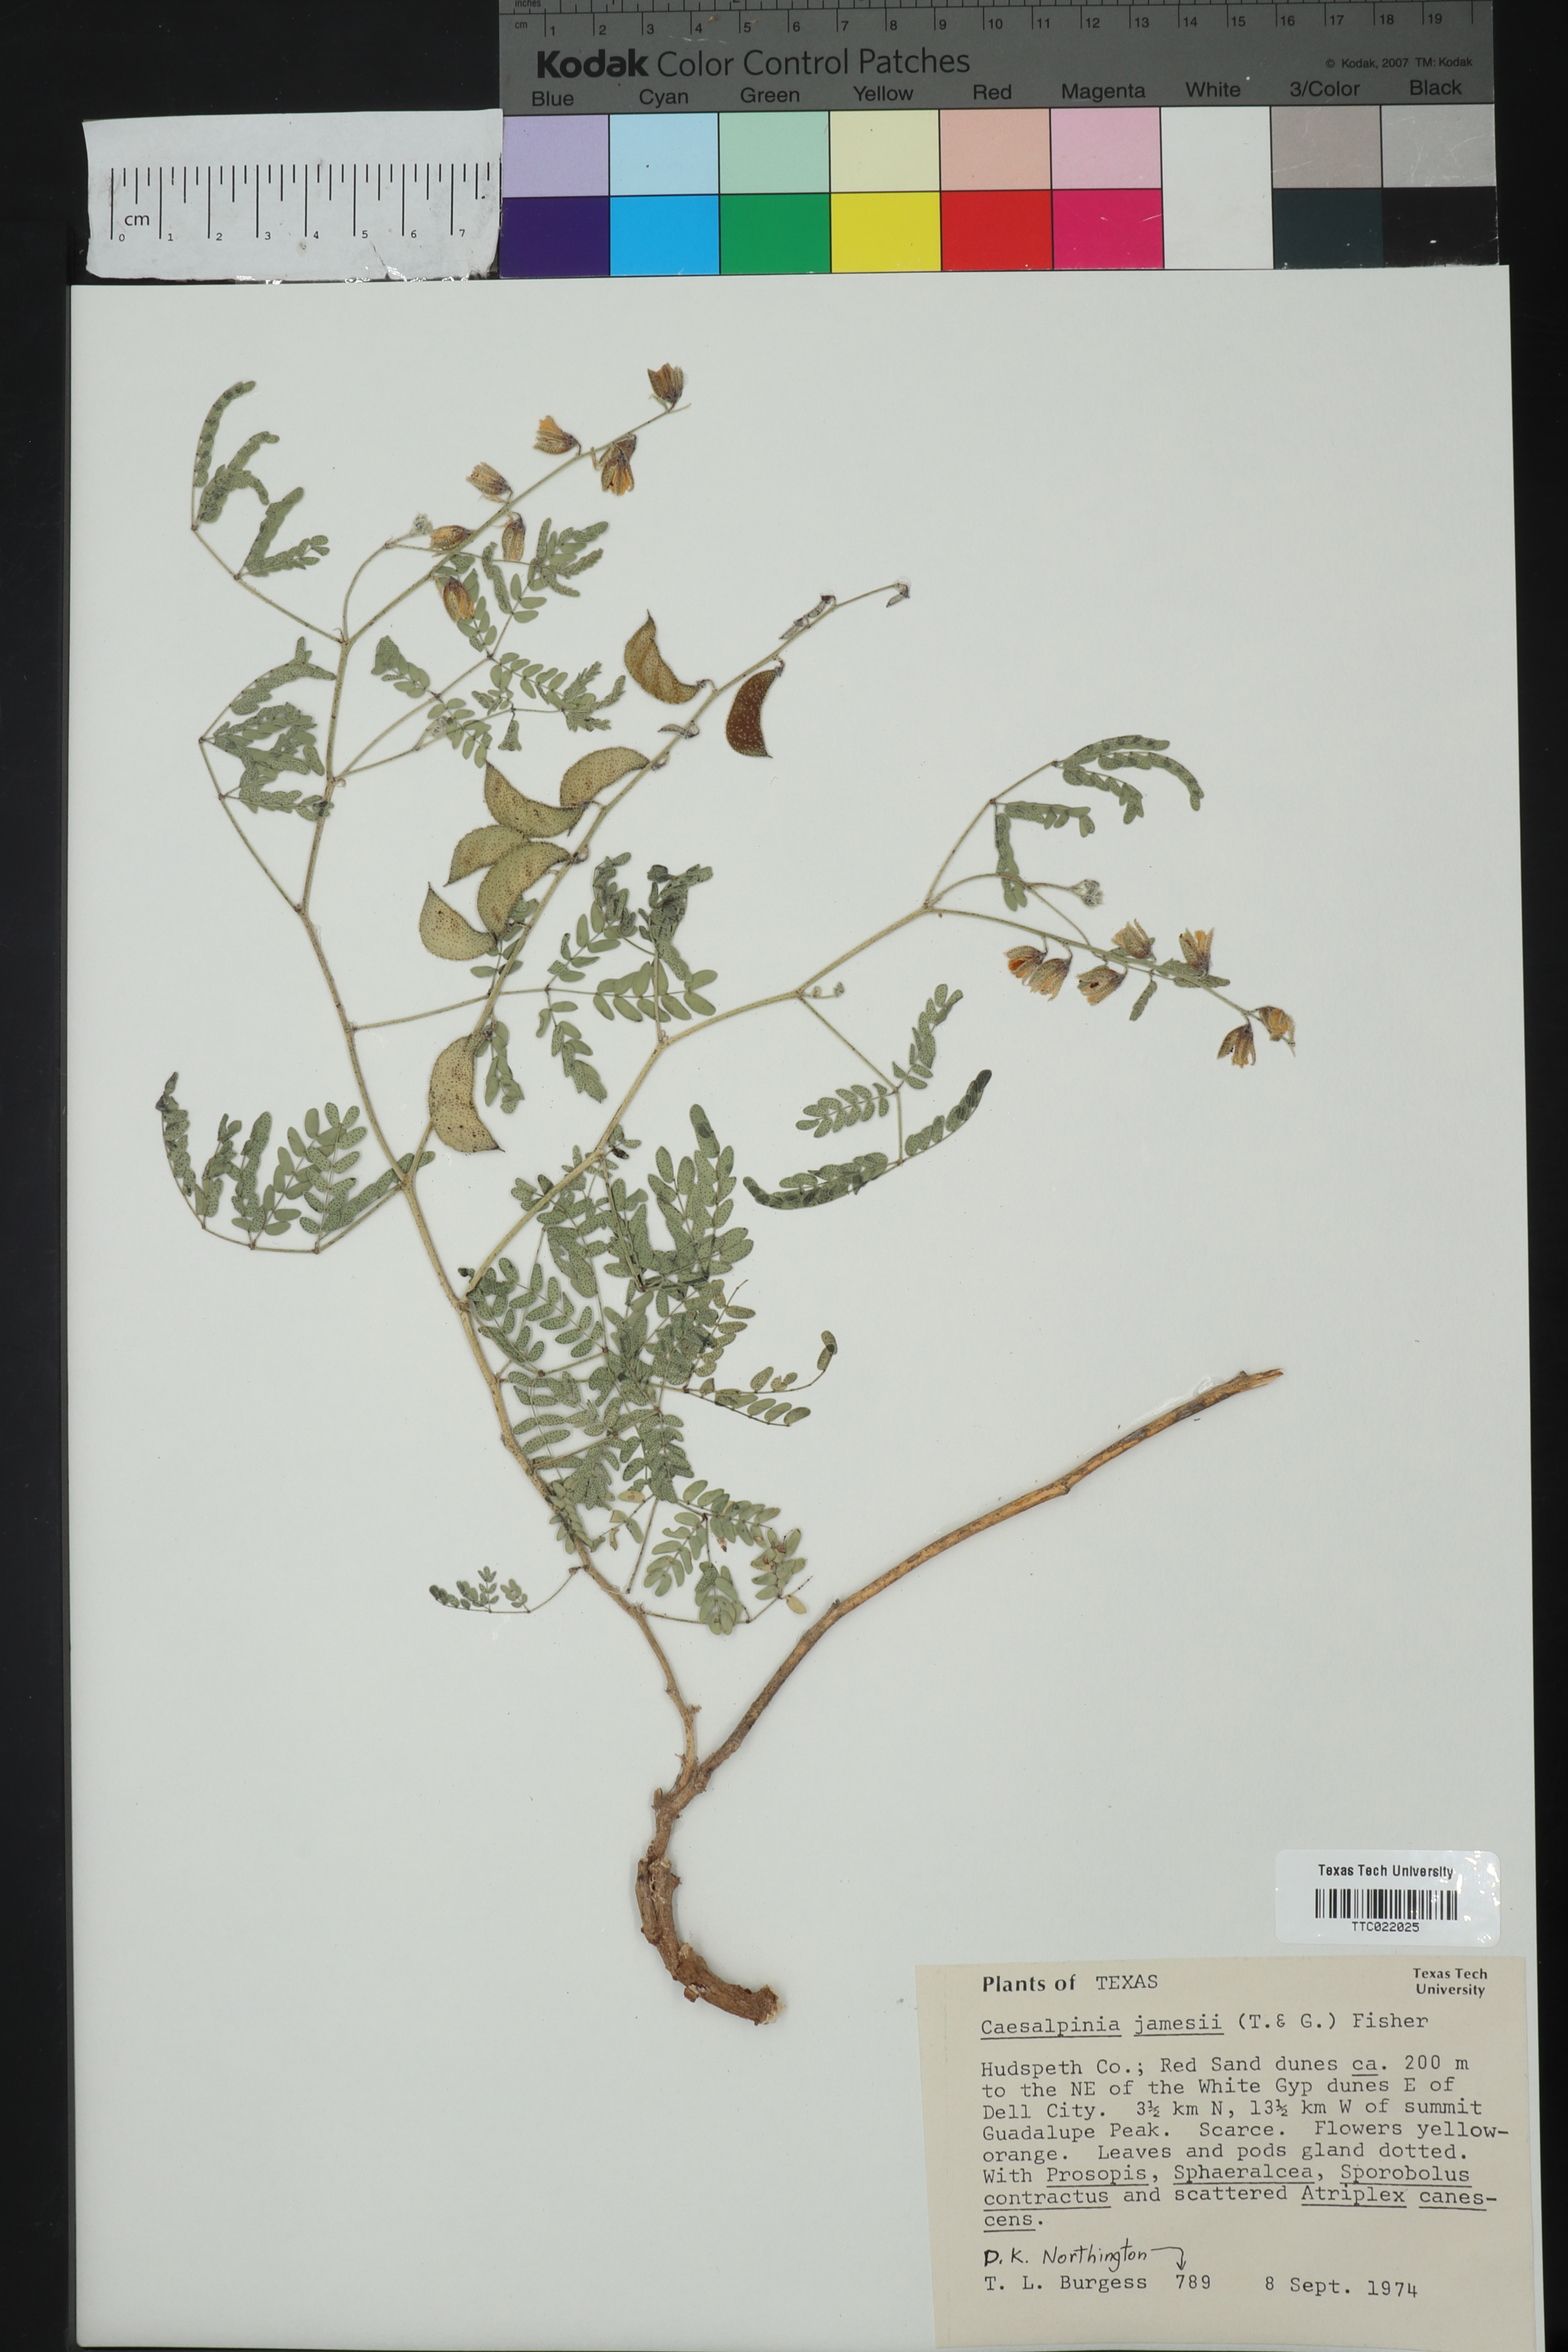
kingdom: Plantae
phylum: Tracheophyta
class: Magnoliopsida
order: Fabales
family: Fabaceae
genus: Pomaria
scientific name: Pomaria jamesii
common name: James' caesalpinia
